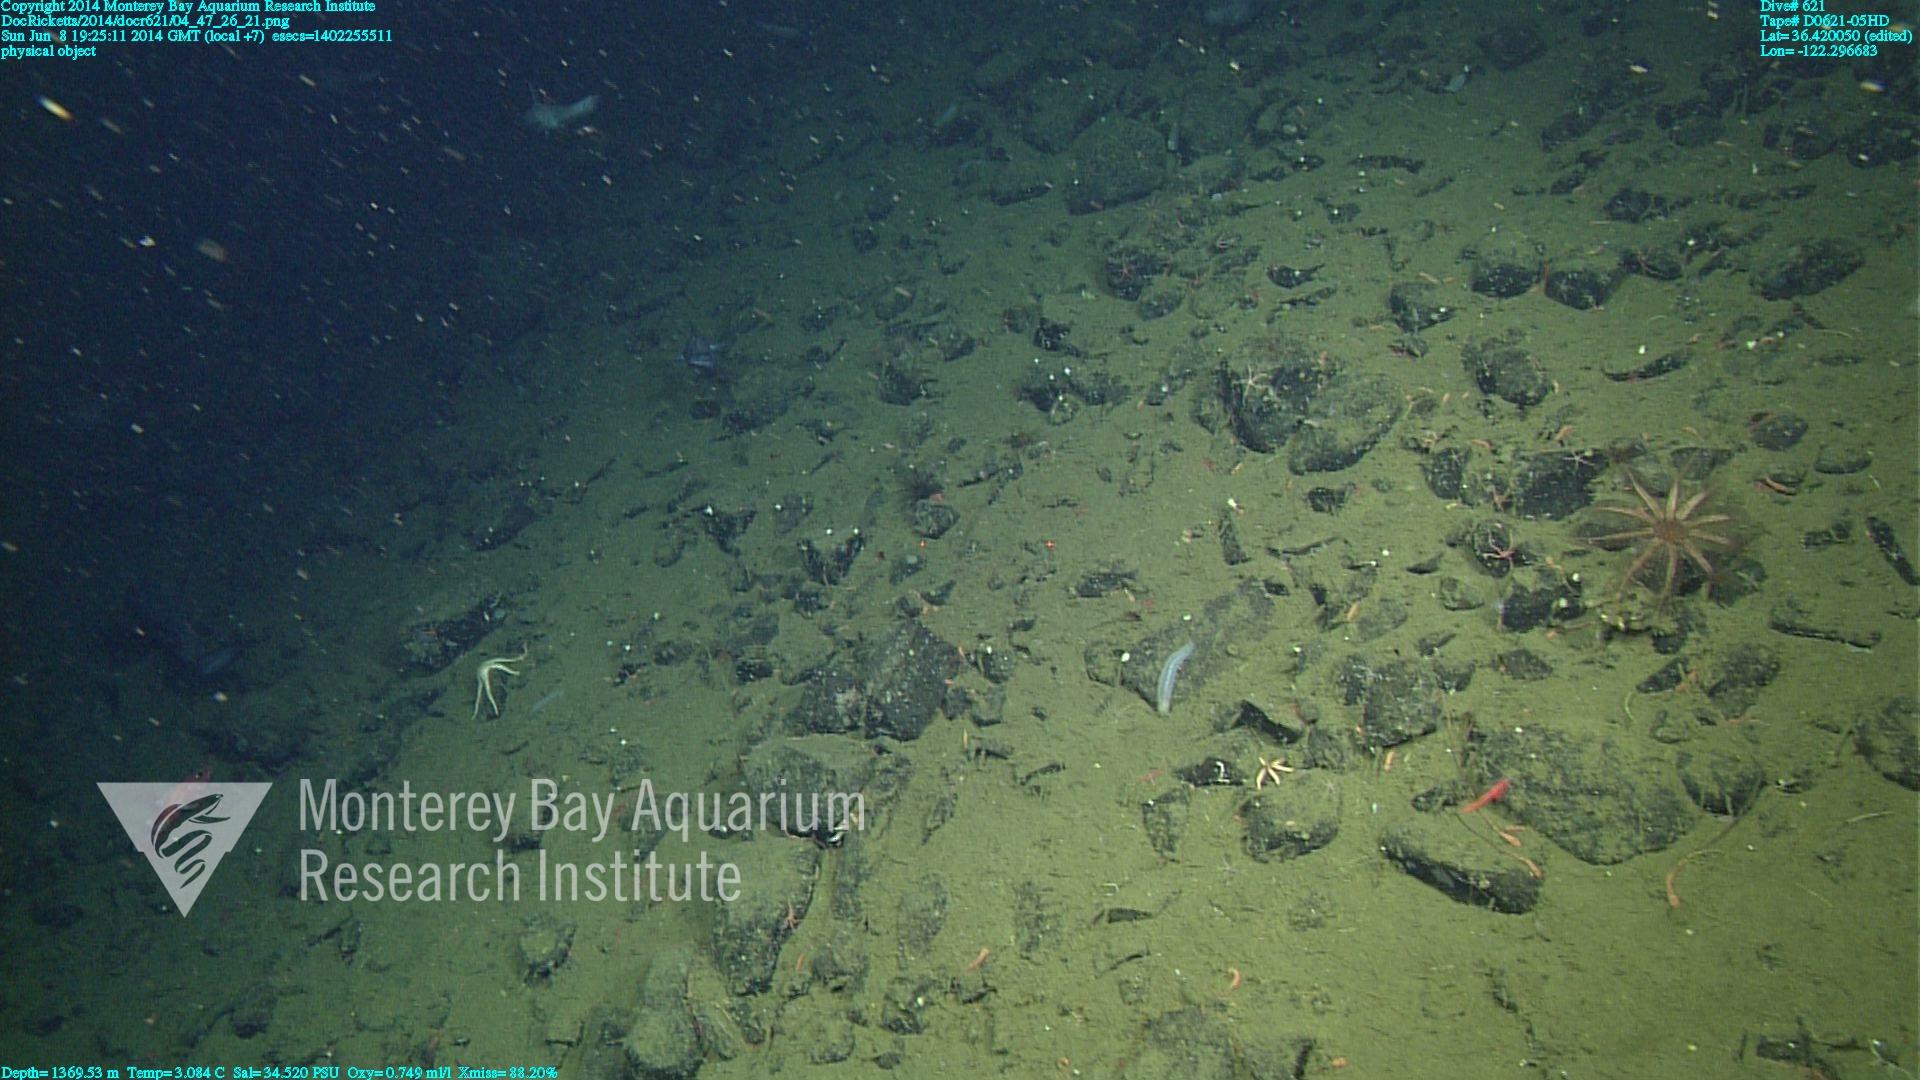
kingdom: Animalia
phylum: Cnidaria
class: Anthozoa
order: Scleralcyonacea
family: Keratoisididae
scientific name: Keratoisididae
